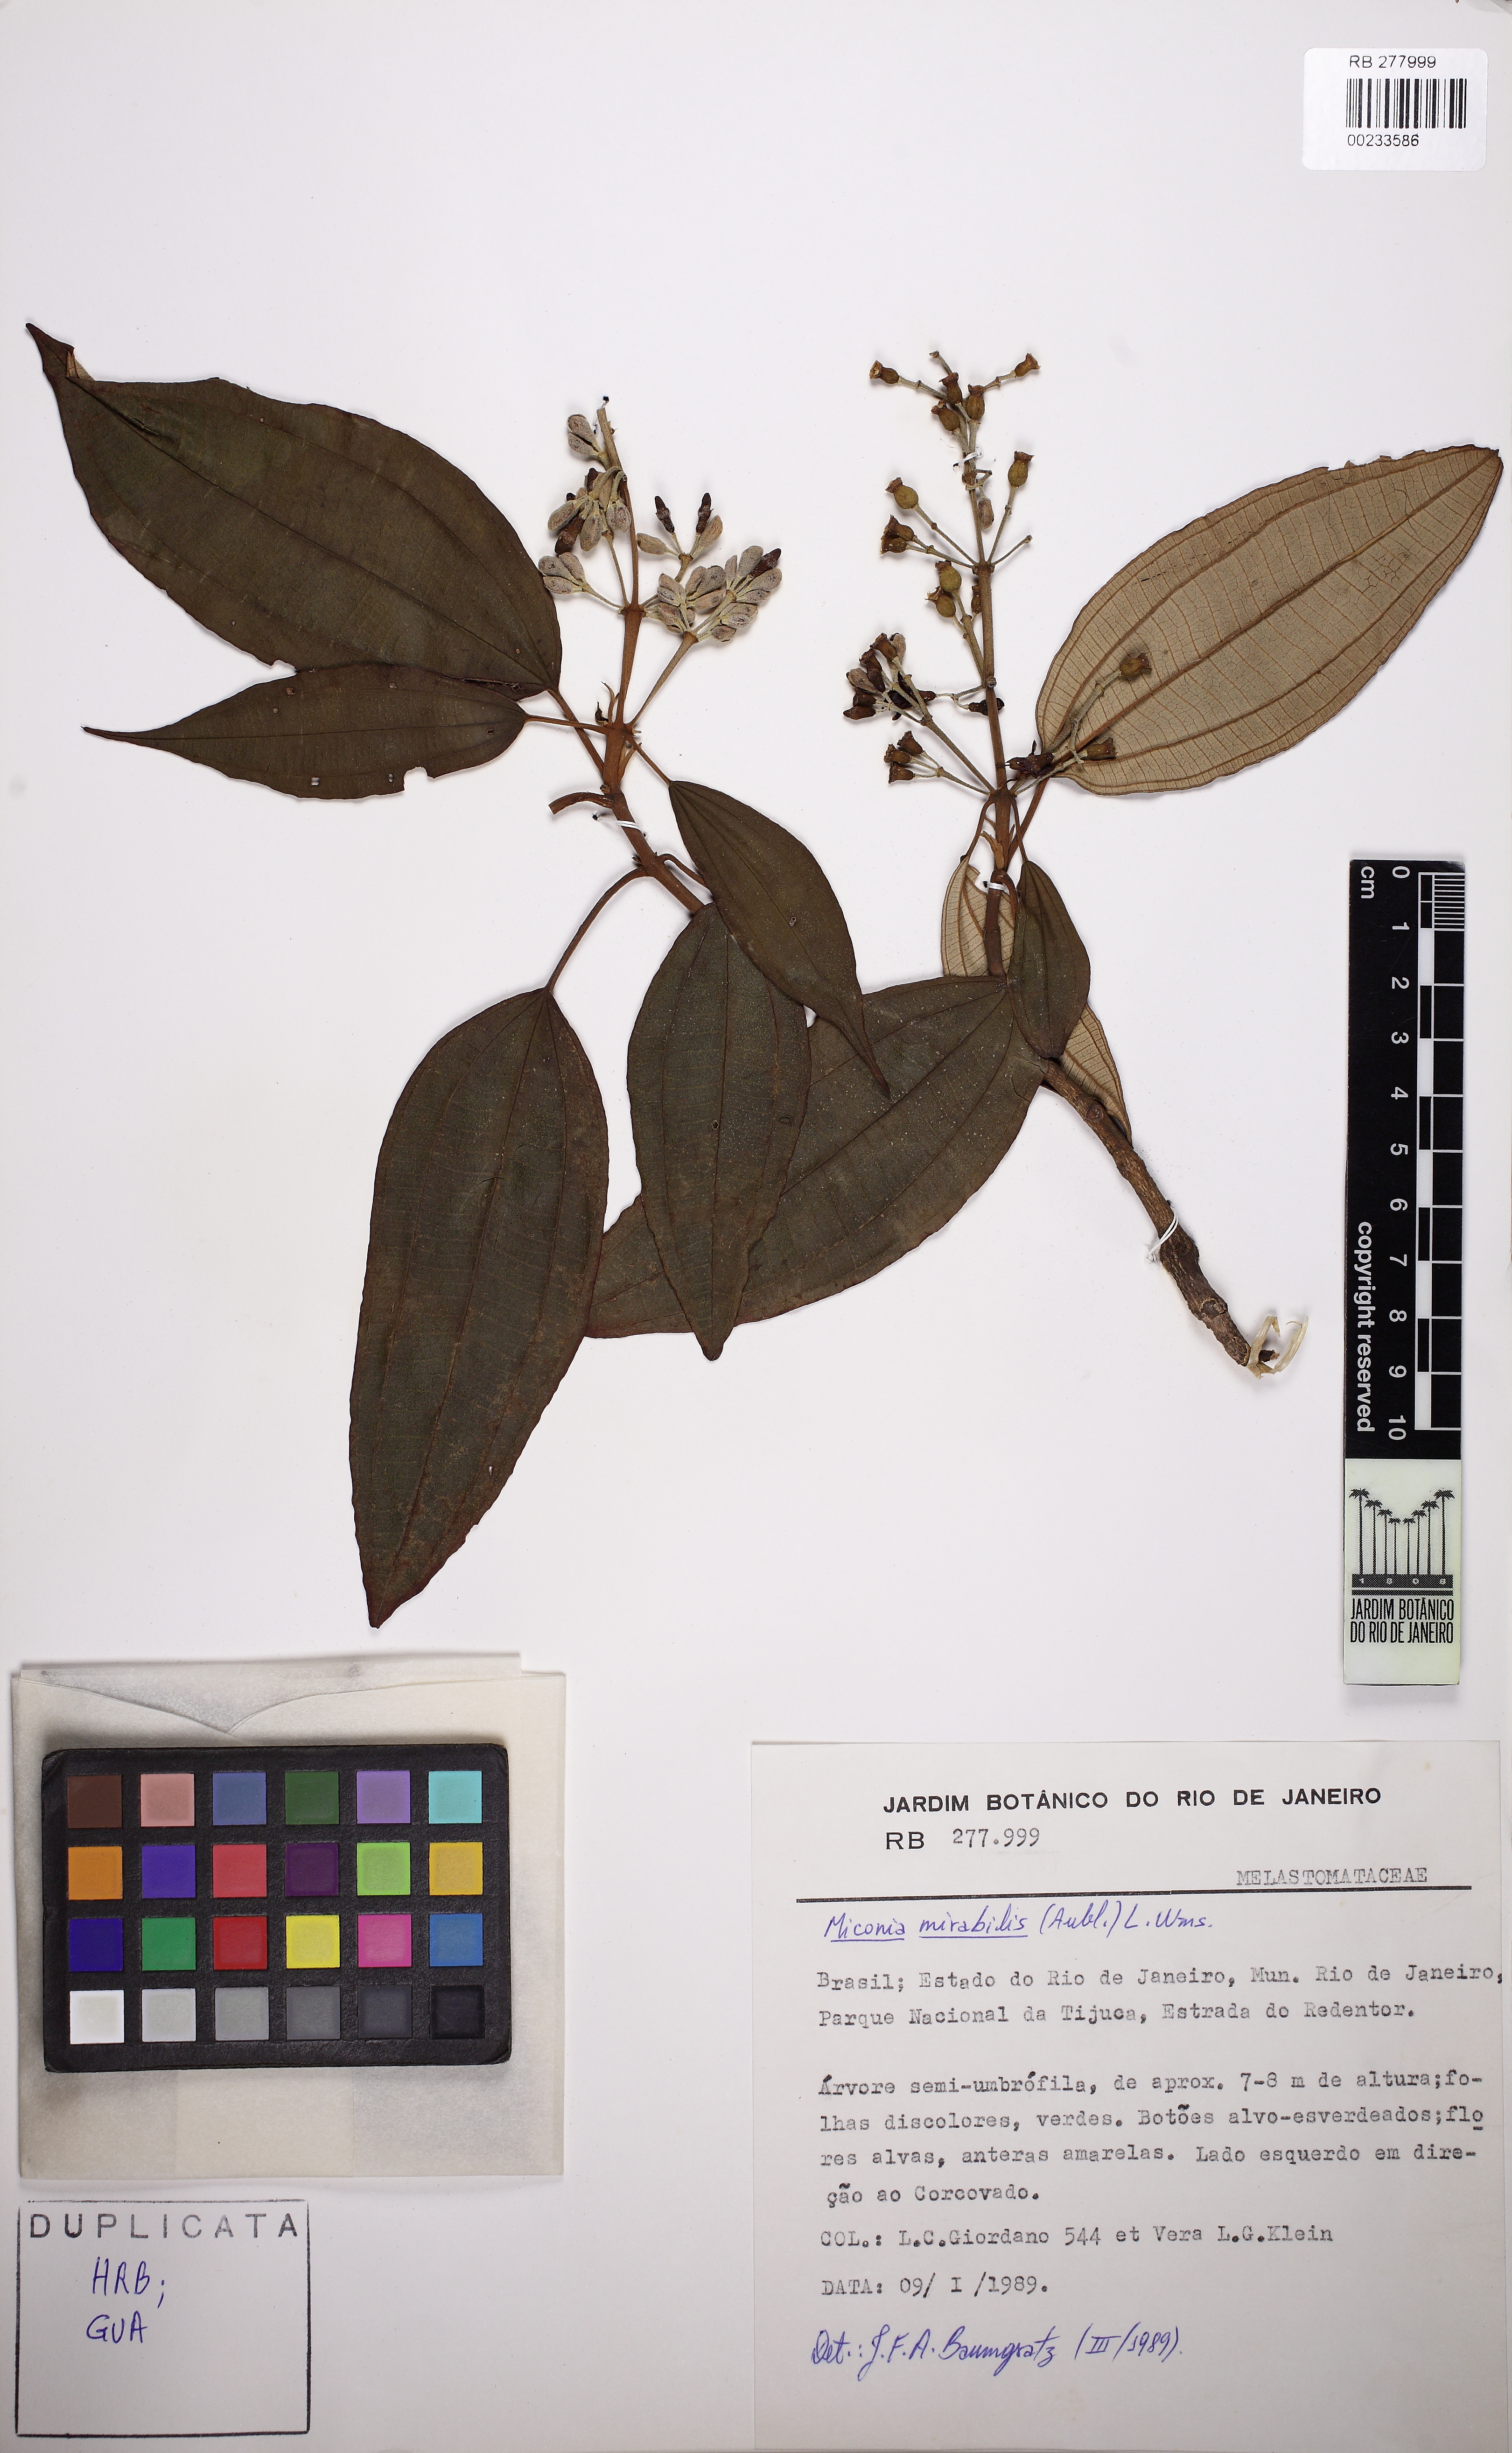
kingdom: Plantae
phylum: Tracheophyta
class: Magnoliopsida
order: Myrtales
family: Melastomataceae
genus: Miconia
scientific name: Miconia mirabilis
